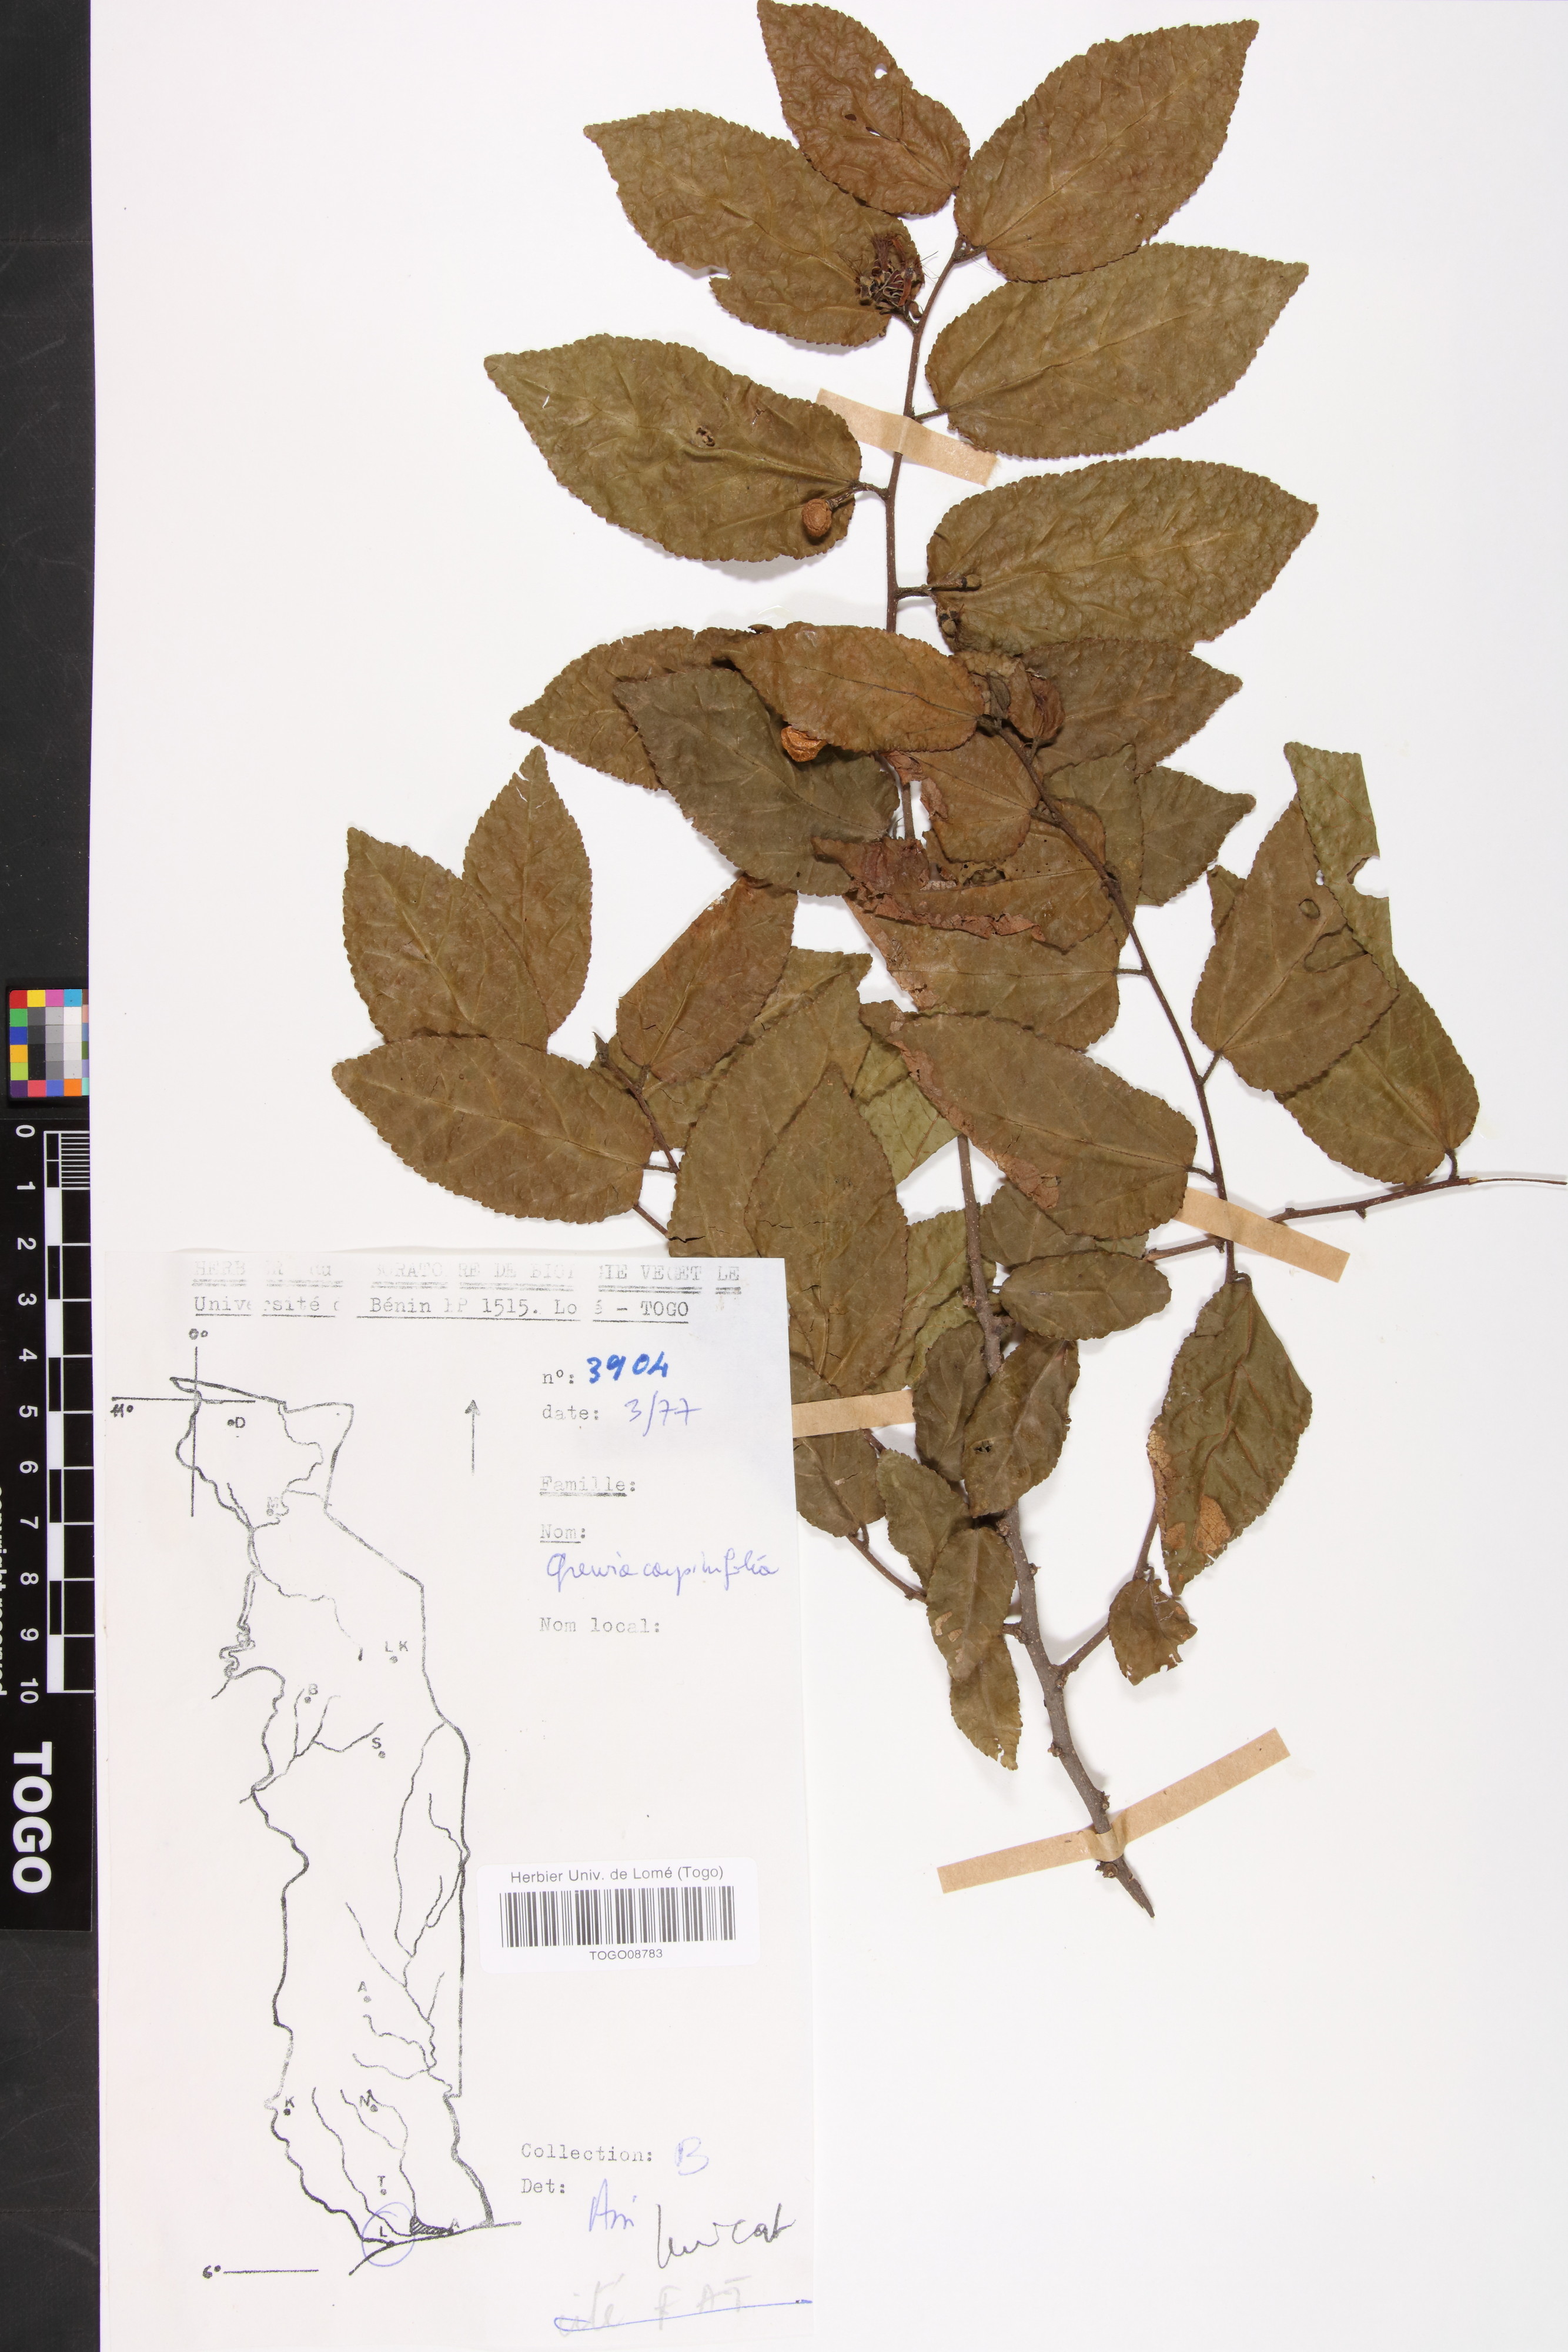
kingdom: Plantae
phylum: Tracheophyta
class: Magnoliopsida
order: Malvales
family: Malvaceae
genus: Grewia
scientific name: Grewia carpinifolia
